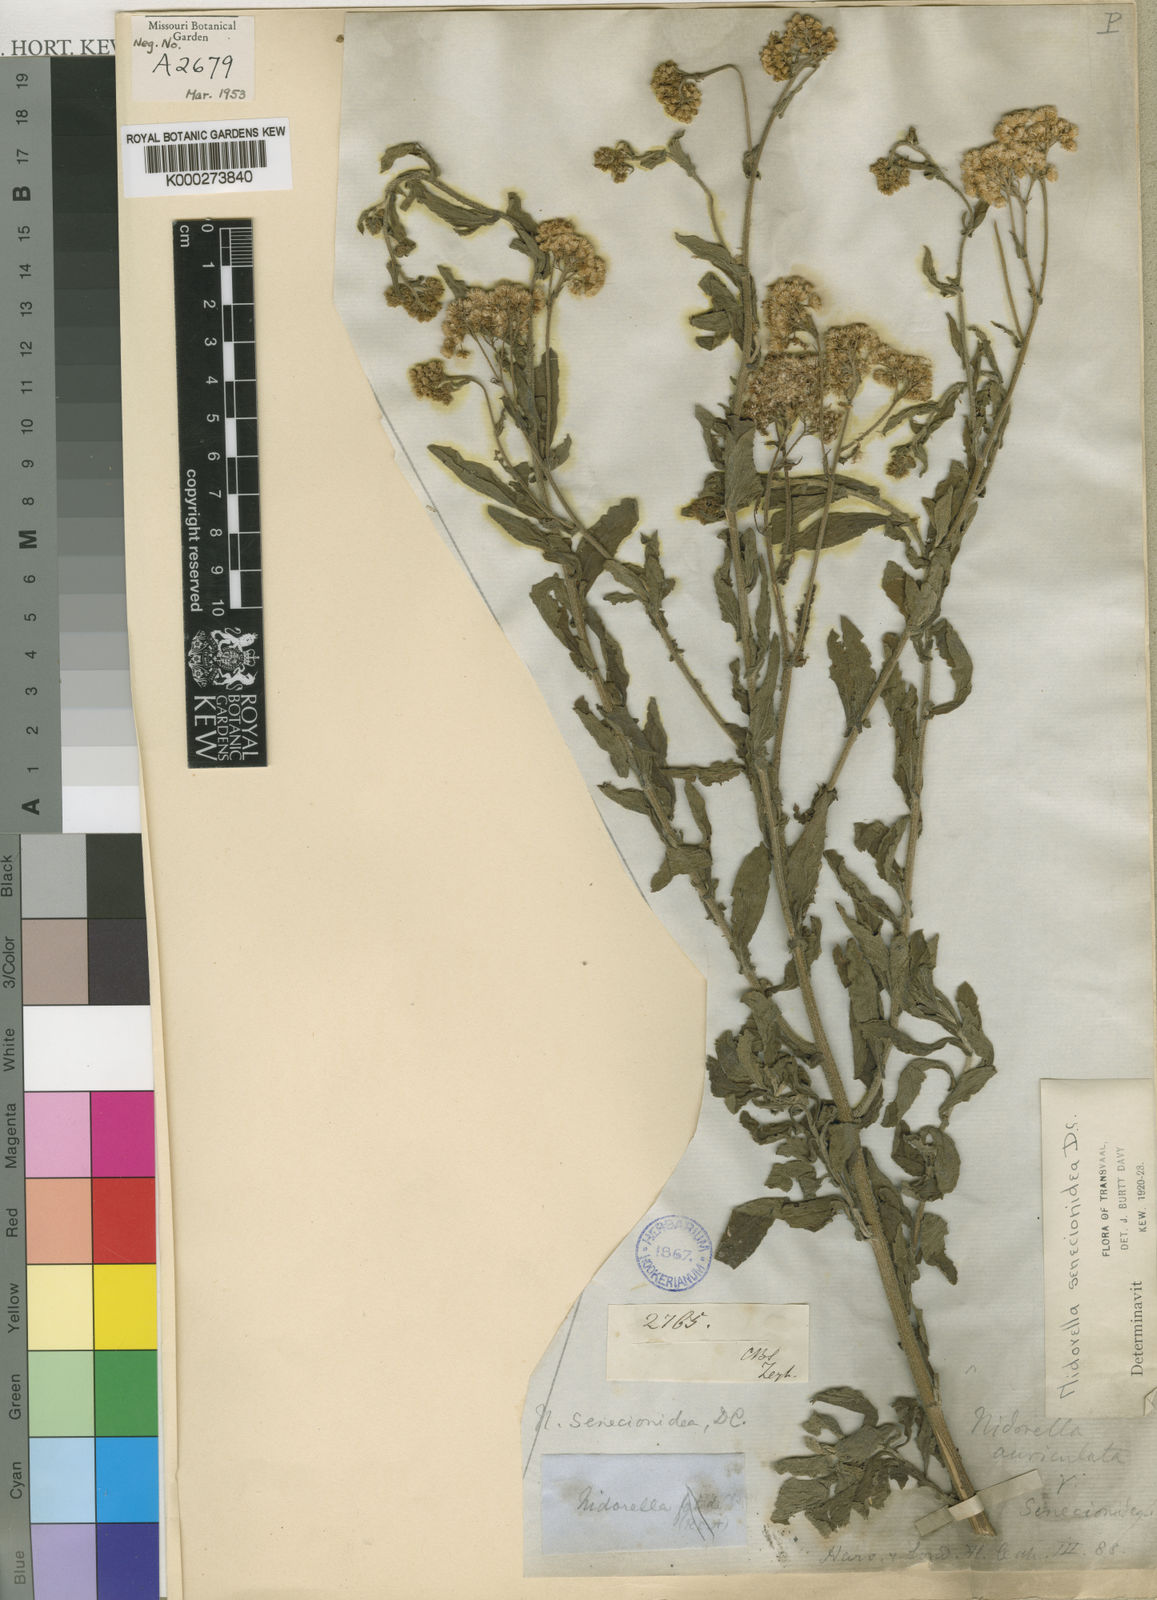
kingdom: Plantae
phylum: Tracheophyta
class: Magnoliopsida
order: Asterales
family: Asteraceae
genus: Pluchea
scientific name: Pluchea paniculata
